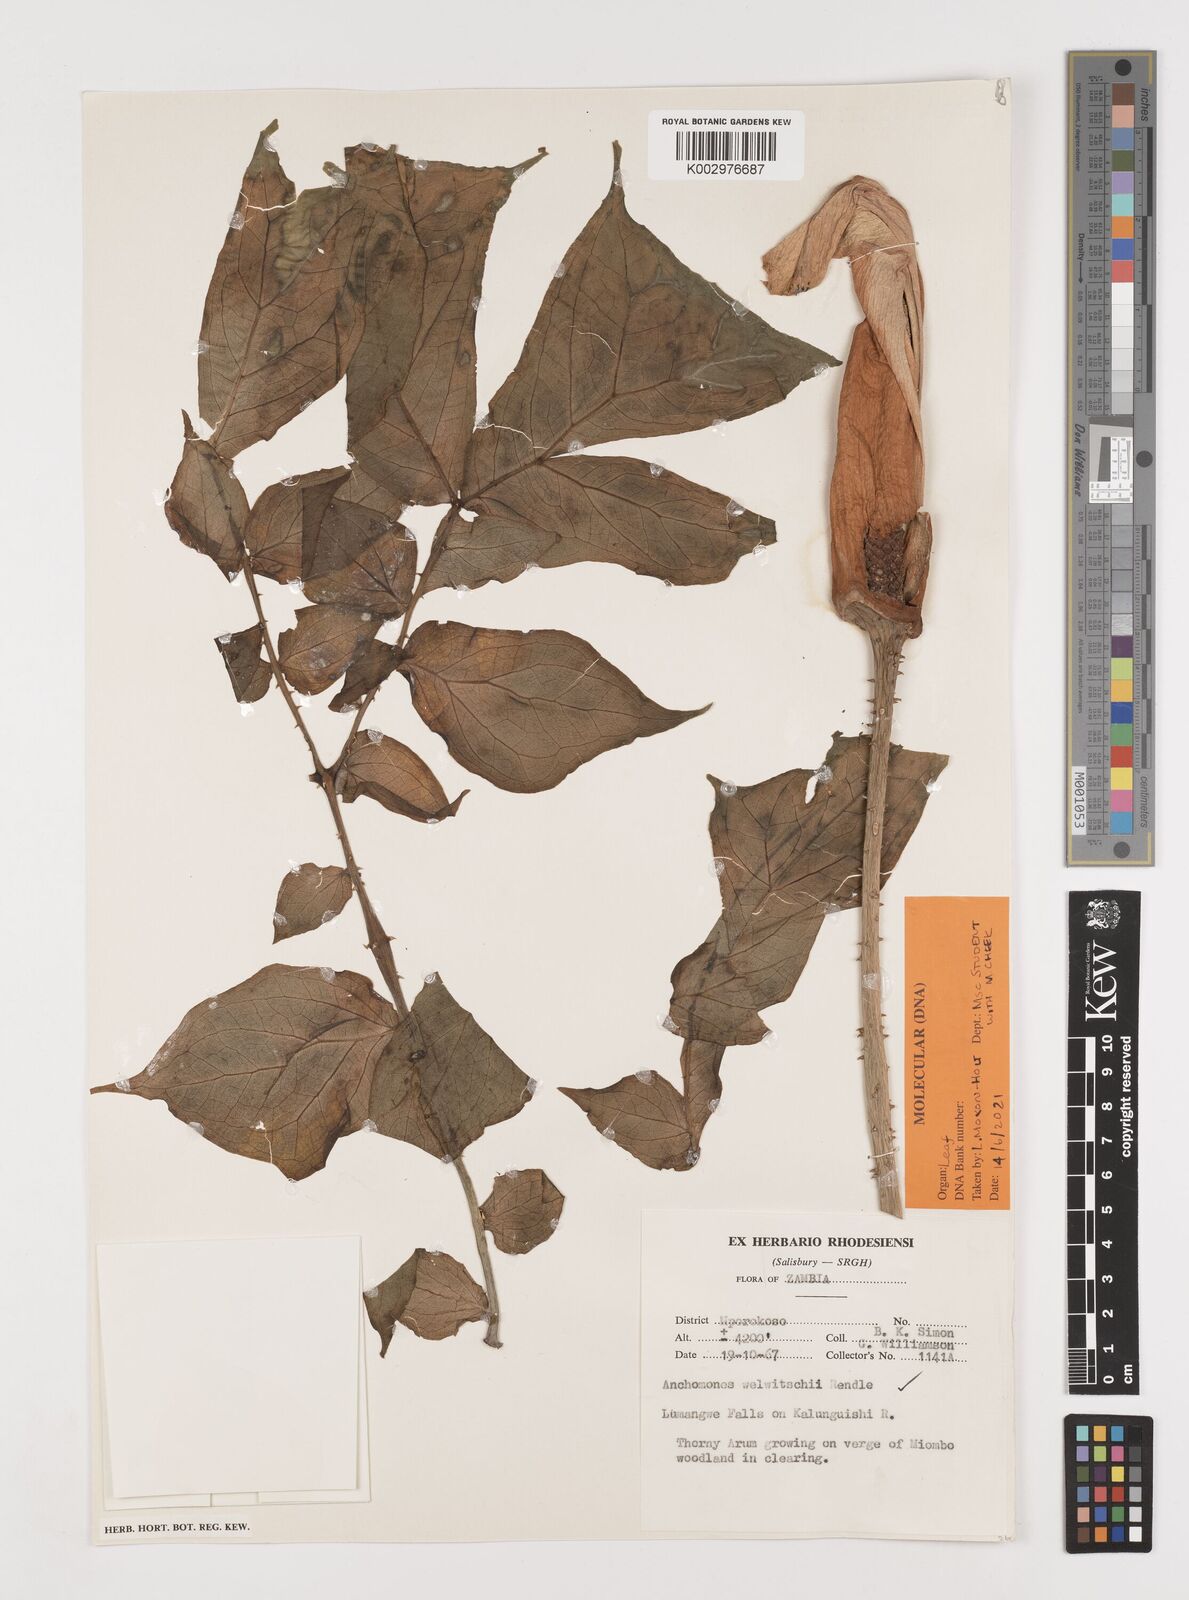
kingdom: Plantae
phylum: Tracheophyta
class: Liliopsida
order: Alismatales
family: Araceae
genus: Anchomanes
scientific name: Anchomanes difformis
